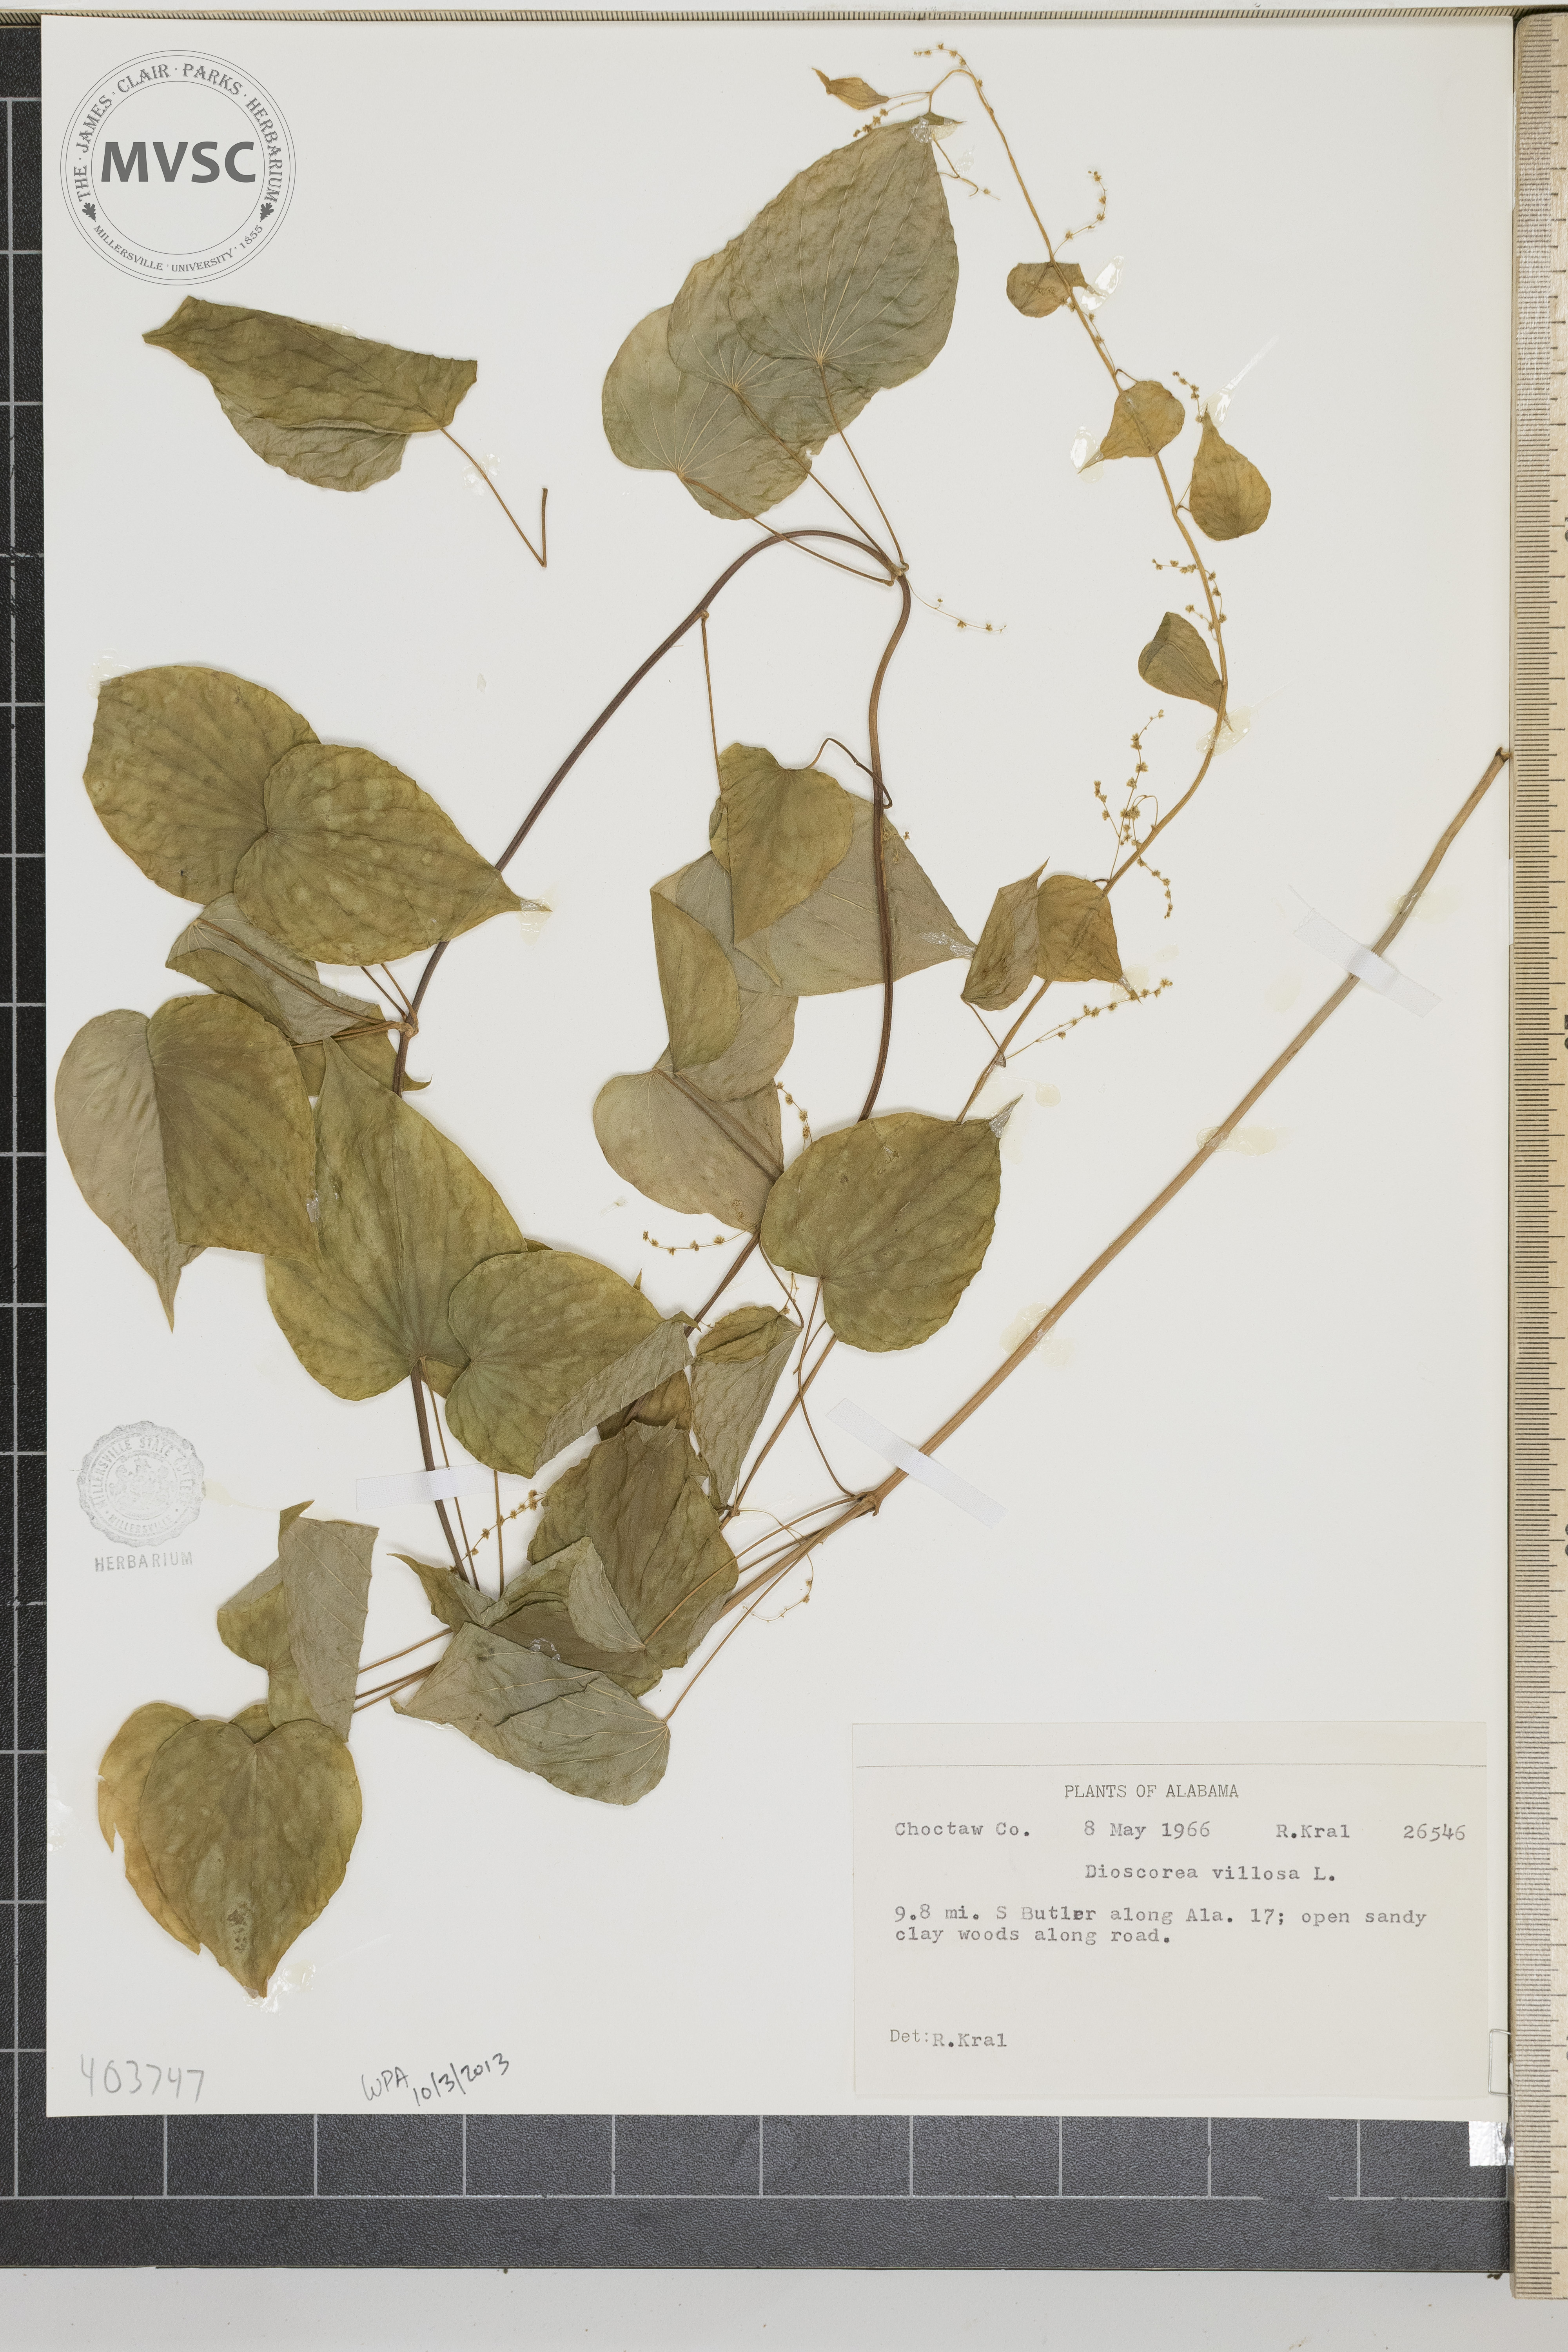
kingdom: Plantae
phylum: Tracheophyta
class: Liliopsida
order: Dioscoreales
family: Dioscoreaceae
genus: Dioscorea
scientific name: Dioscorea villosa
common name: Wild Yam
